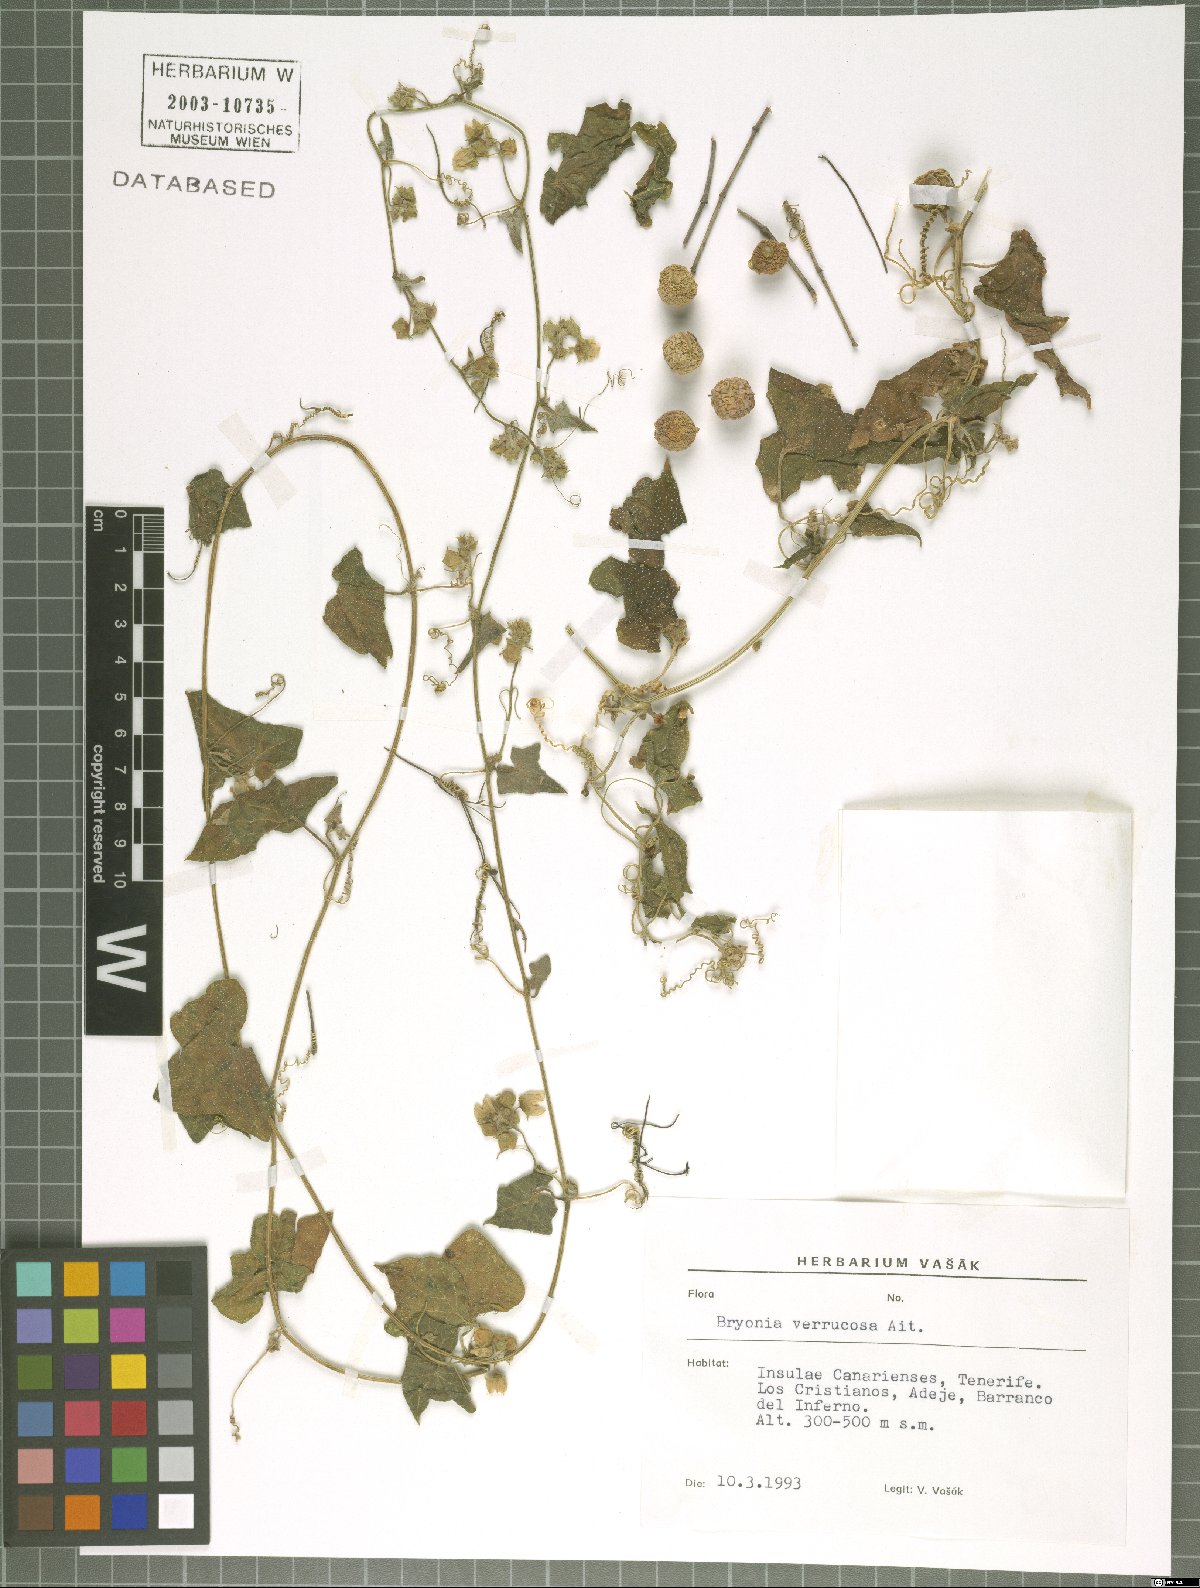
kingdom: Plantae
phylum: Tracheophyta
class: Magnoliopsida
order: Cucurbitales
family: Cucurbitaceae
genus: Bryonia
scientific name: Bryonia verrucosa
